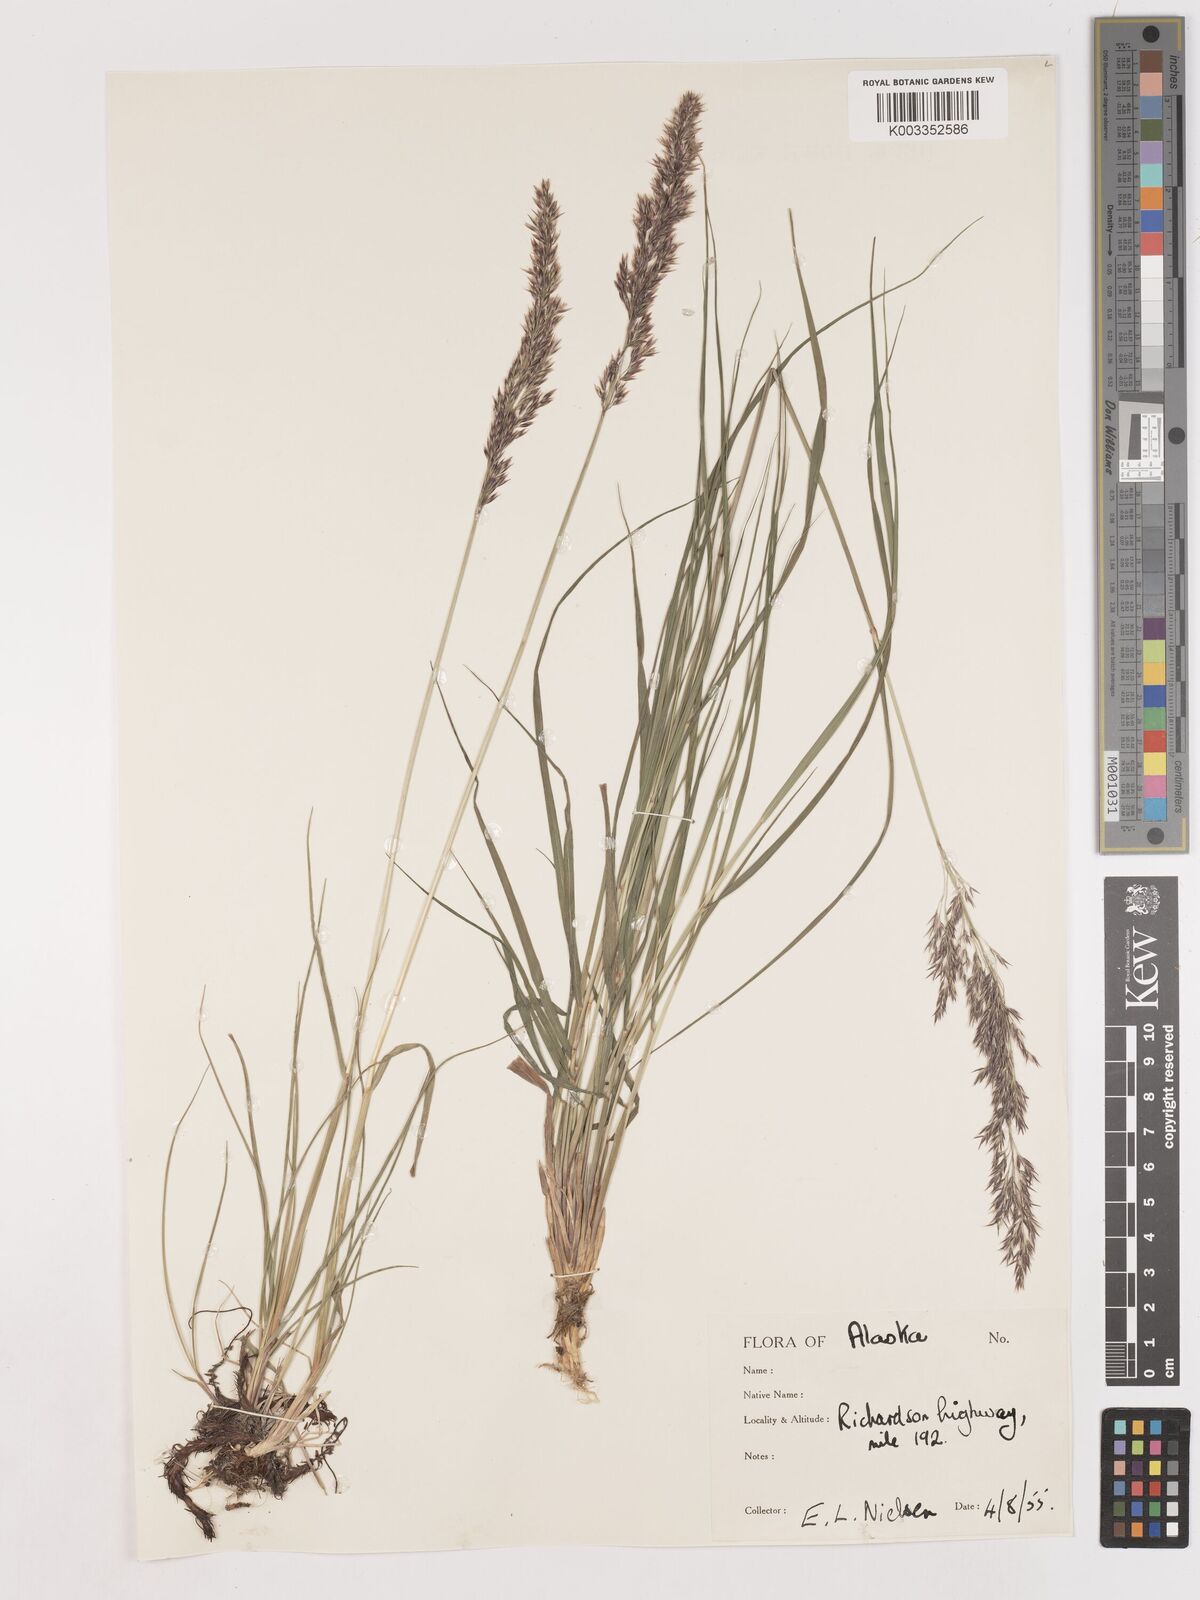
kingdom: Plantae
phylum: Tracheophyta
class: Liliopsida
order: Poales
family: Poaceae
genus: Calamagrostis
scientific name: Calamagrostis canadensis
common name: Canada bluejoint
